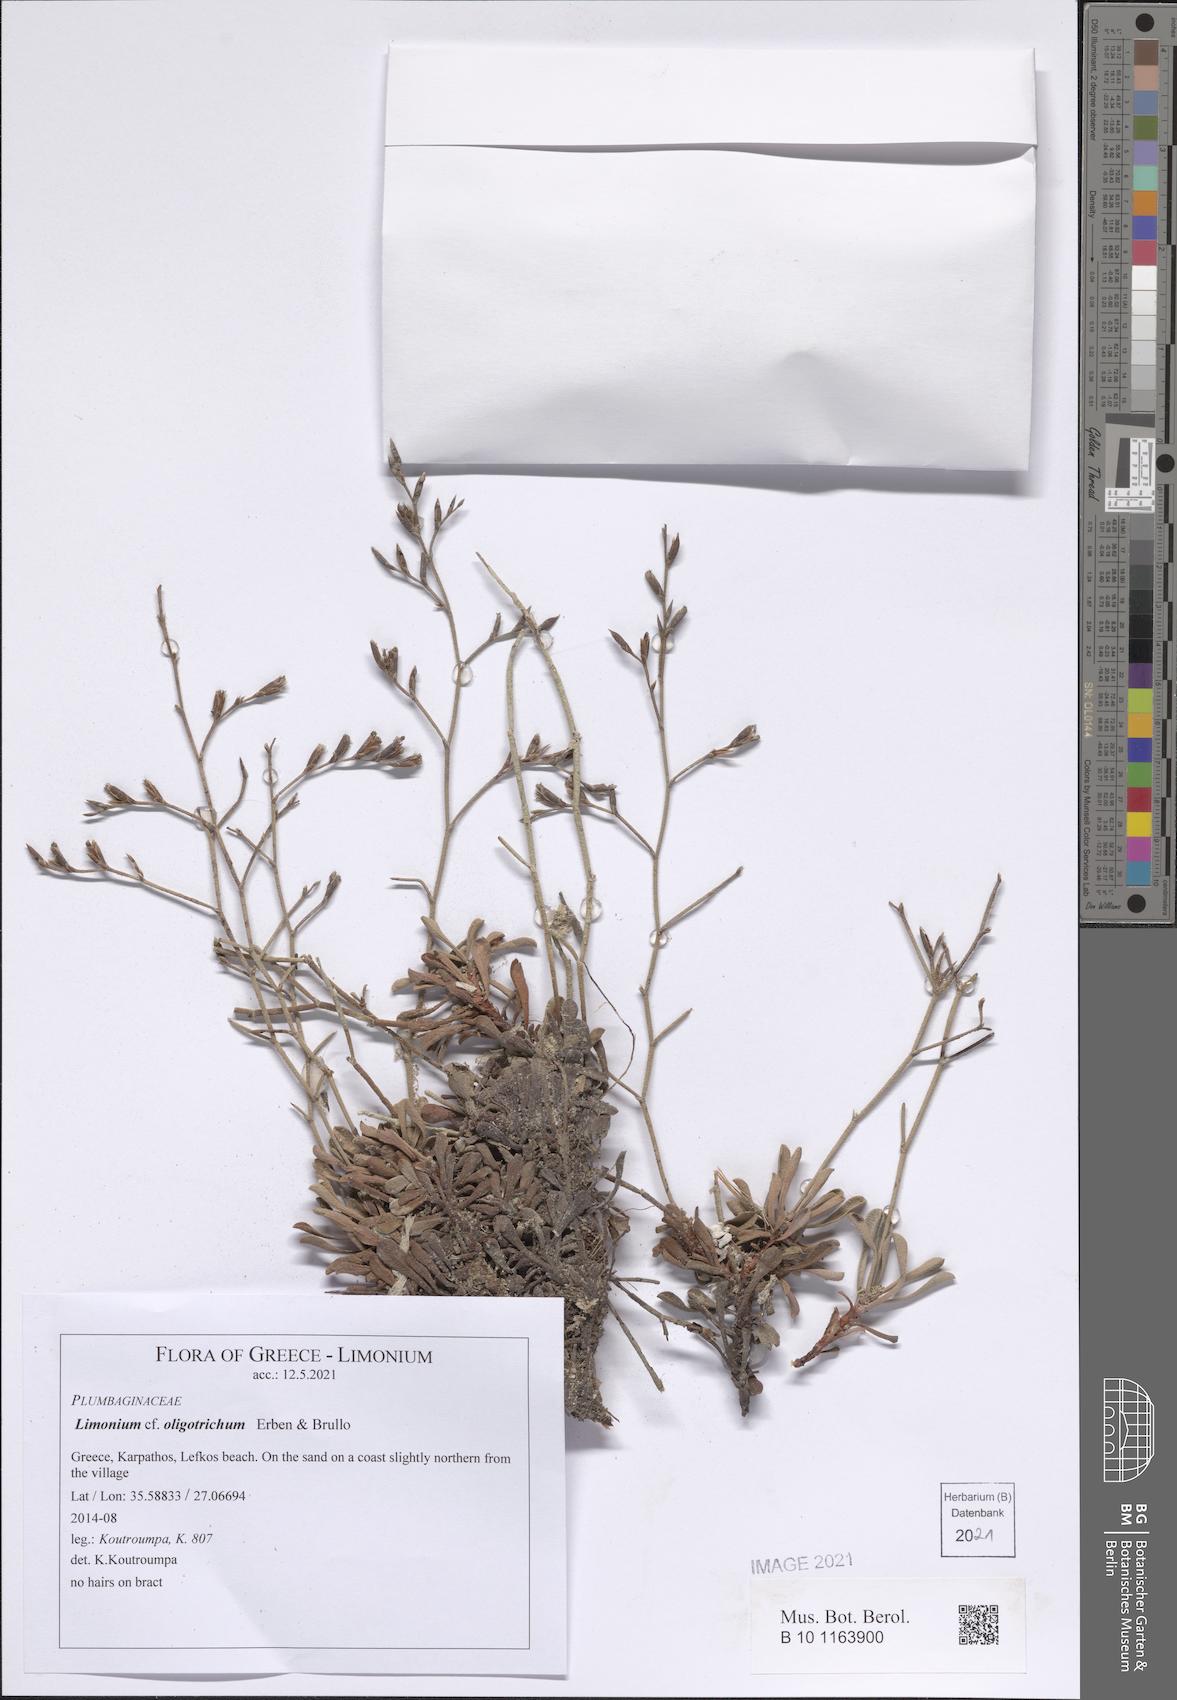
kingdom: Plantae
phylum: Tracheophyta
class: Magnoliopsida
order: Caryophyllales
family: Plumbaginaceae
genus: Limonium
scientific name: Limonium oligotrichum
